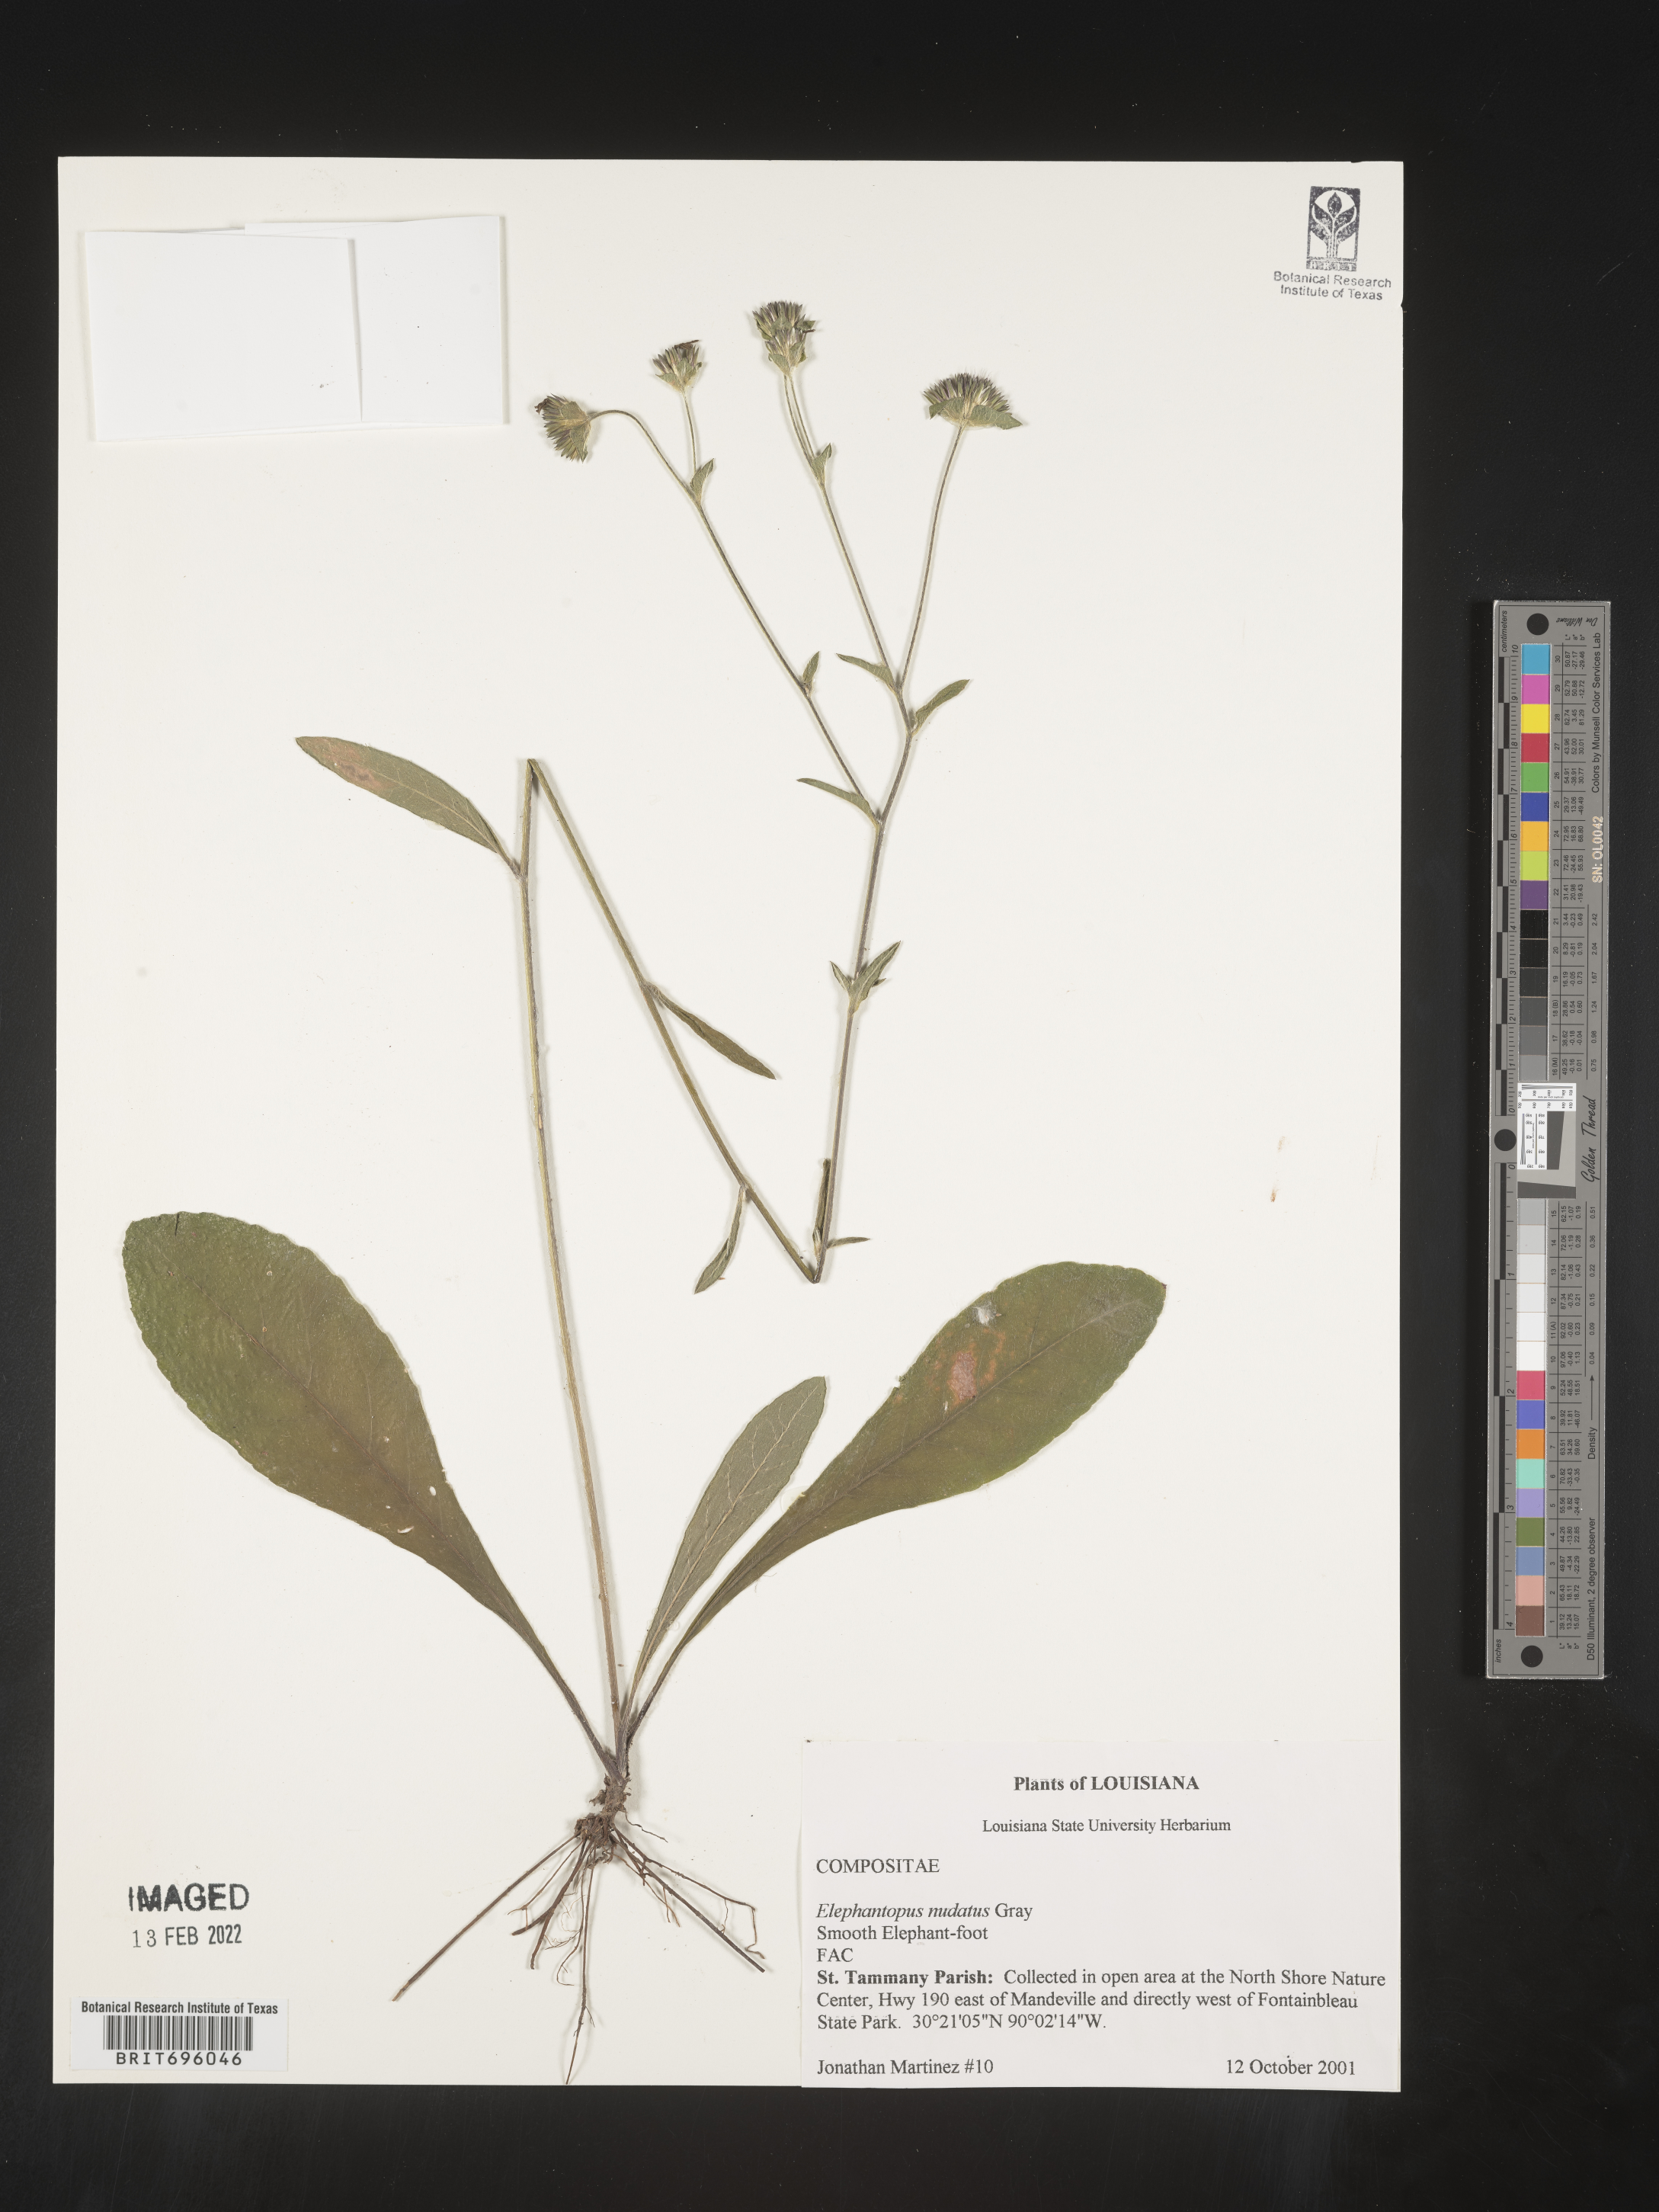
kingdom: Plantae
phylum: Tracheophyta
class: Magnoliopsida
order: Asterales
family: Asteraceae
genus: Elephantopus
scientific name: Elephantopus nudatus
